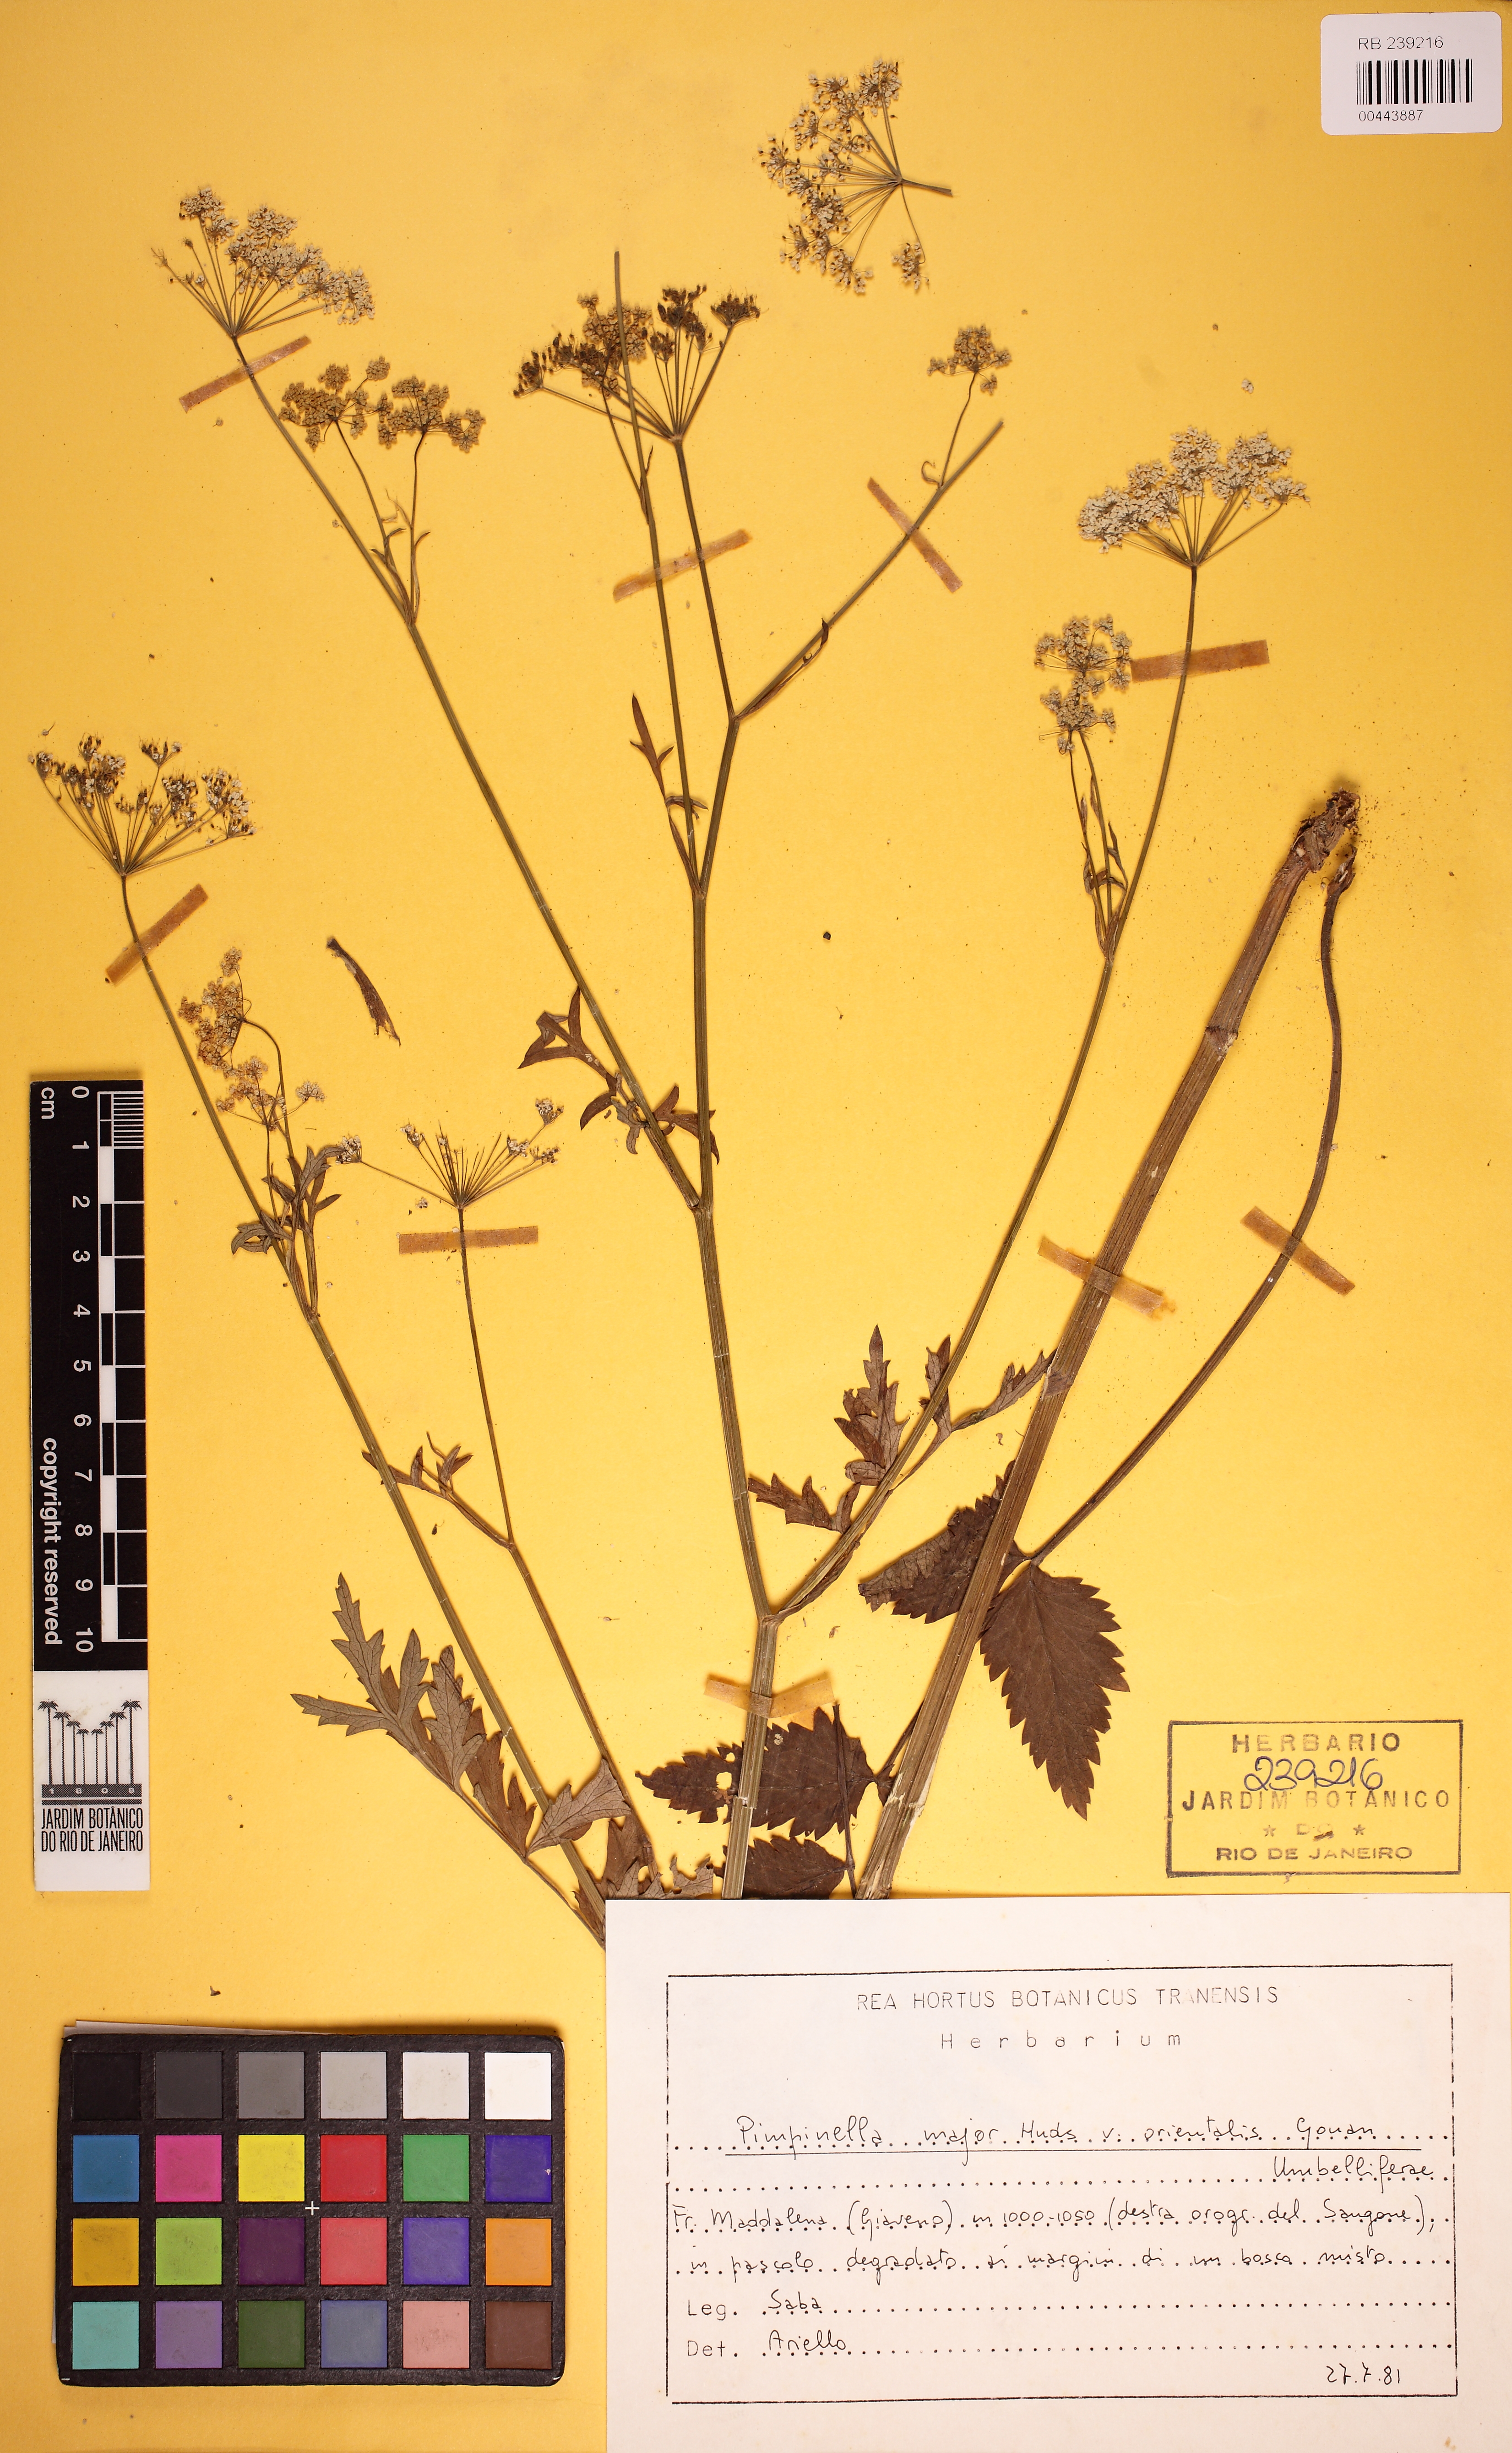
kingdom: Plantae
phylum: Tracheophyta
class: Magnoliopsida
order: Apiales
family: Apiaceae
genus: Pimpinella
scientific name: Pimpinella major
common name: Greater burnet-saxifrage
